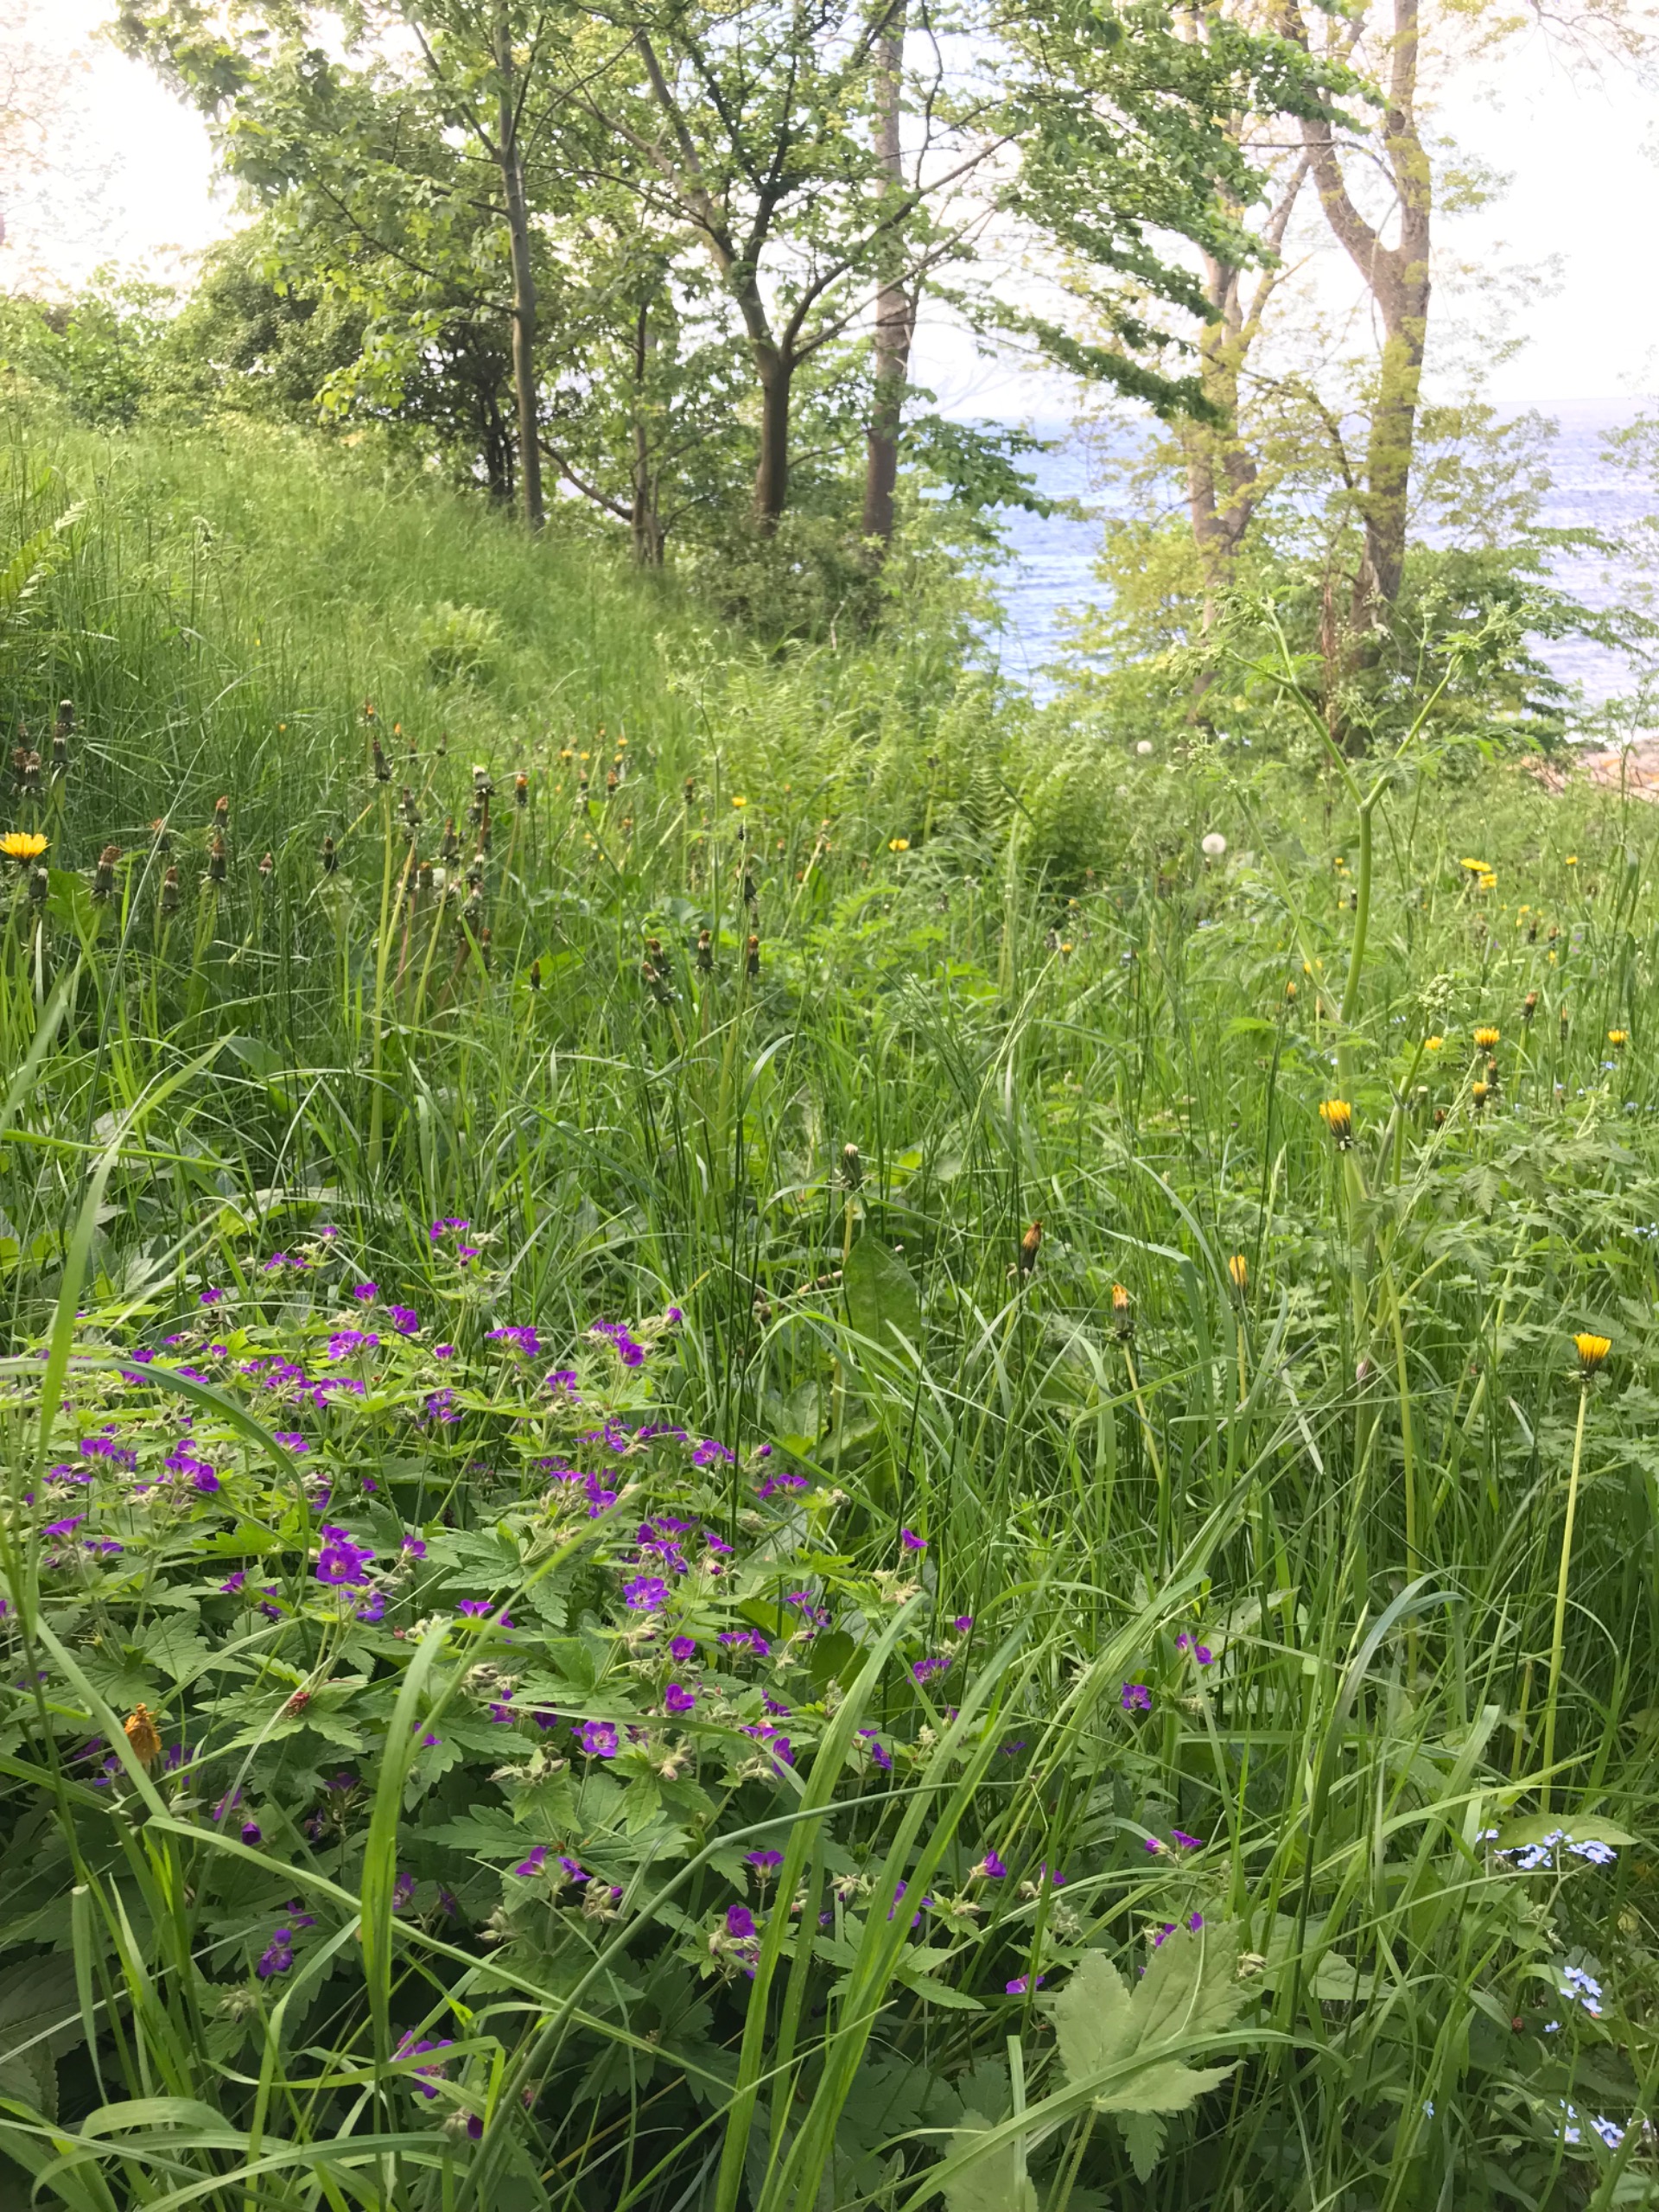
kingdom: Plantae
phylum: Tracheophyta
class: Magnoliopsida
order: Geraniales
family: Geraniaceae
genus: Geranium
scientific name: Geranium sylvaticum
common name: Skov-storkenæb
